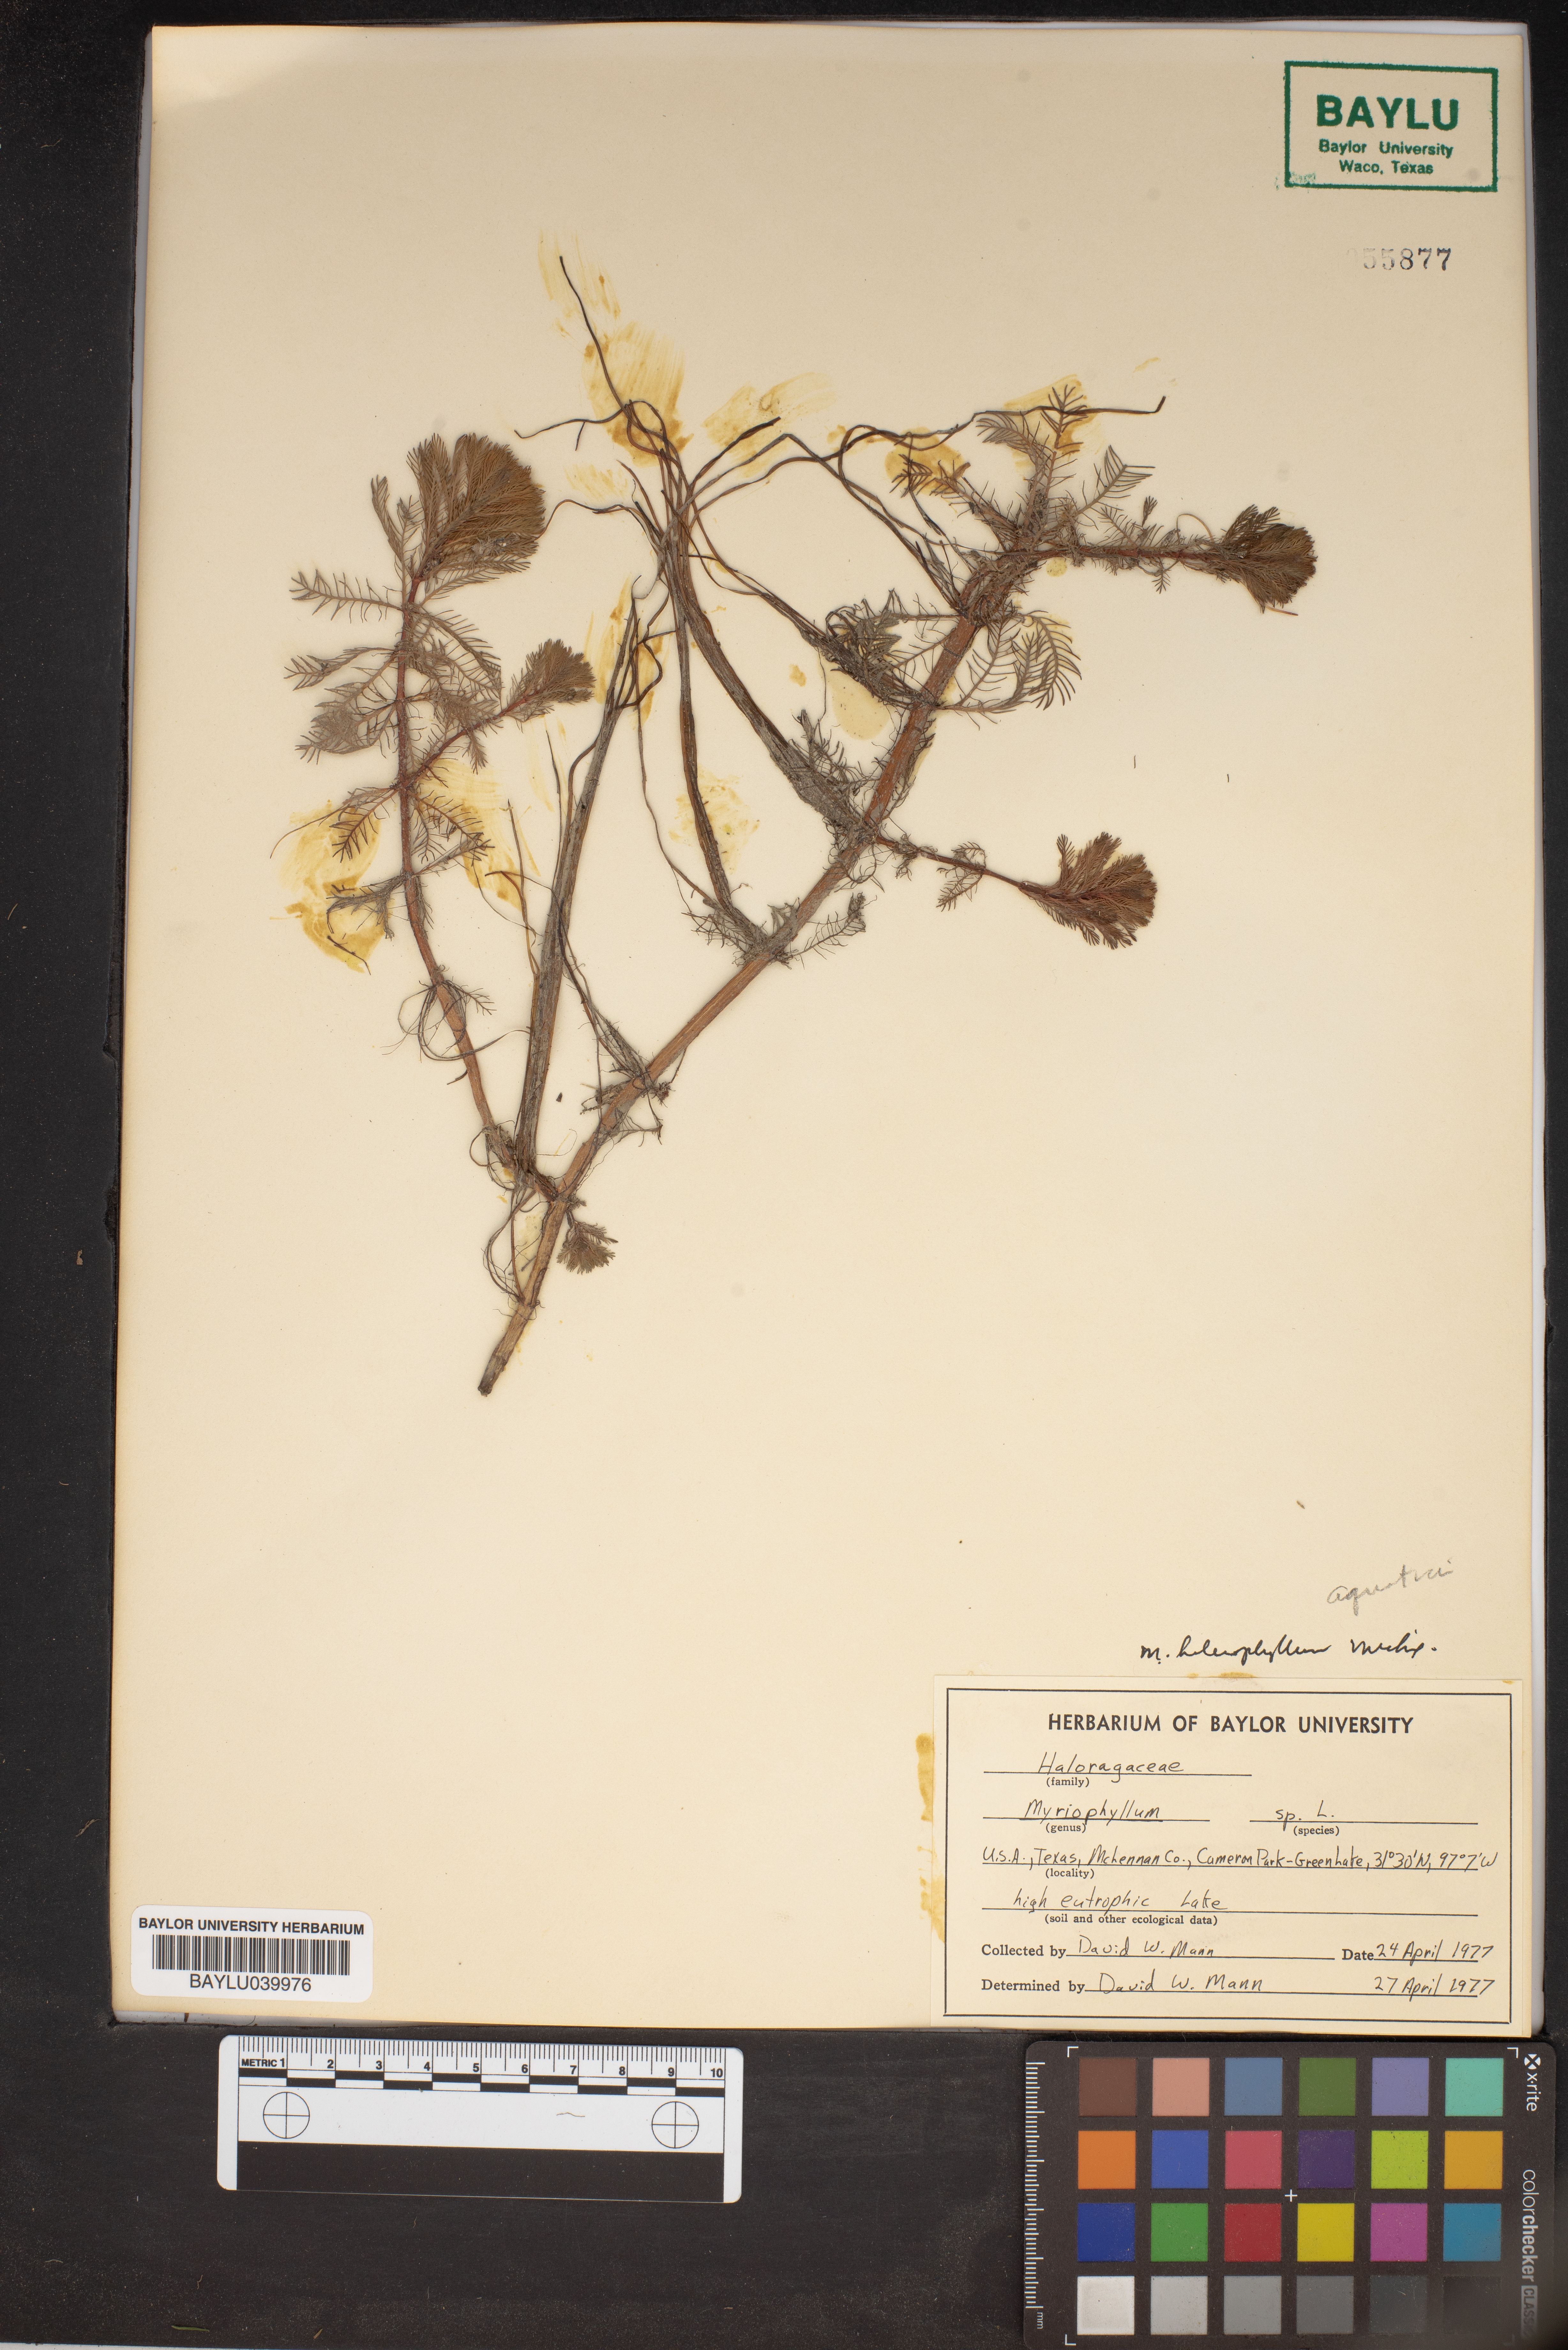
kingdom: Plantae
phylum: Tracheophyta
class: Magnoliopsida
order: Saxifragales
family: Haloragaceae
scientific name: Haloragaceae
